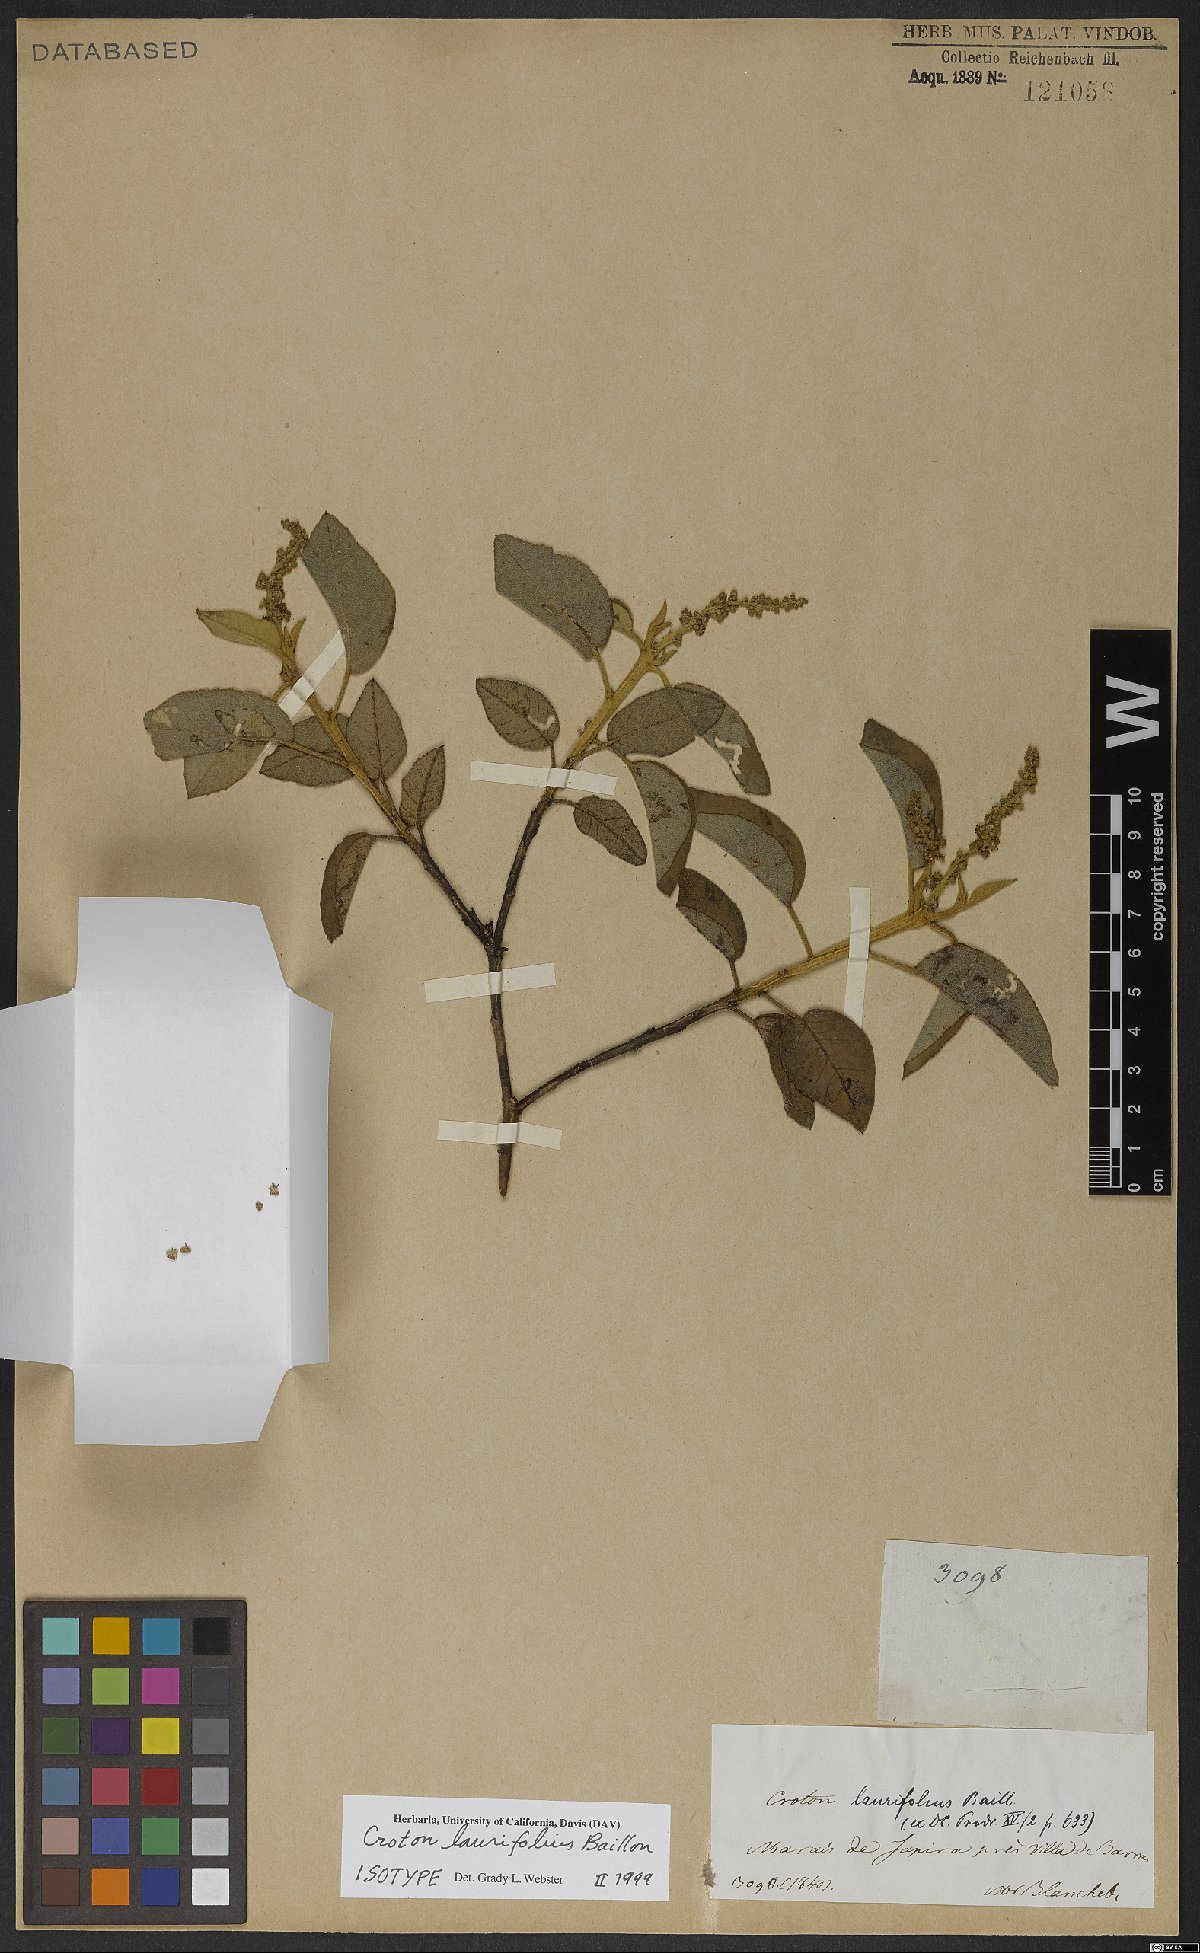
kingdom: Plantae
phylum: Tracheophyta
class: Magnoliopsida
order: Malpighiales
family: Euphorbiaceae
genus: Croton
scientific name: Croton laurifolius
